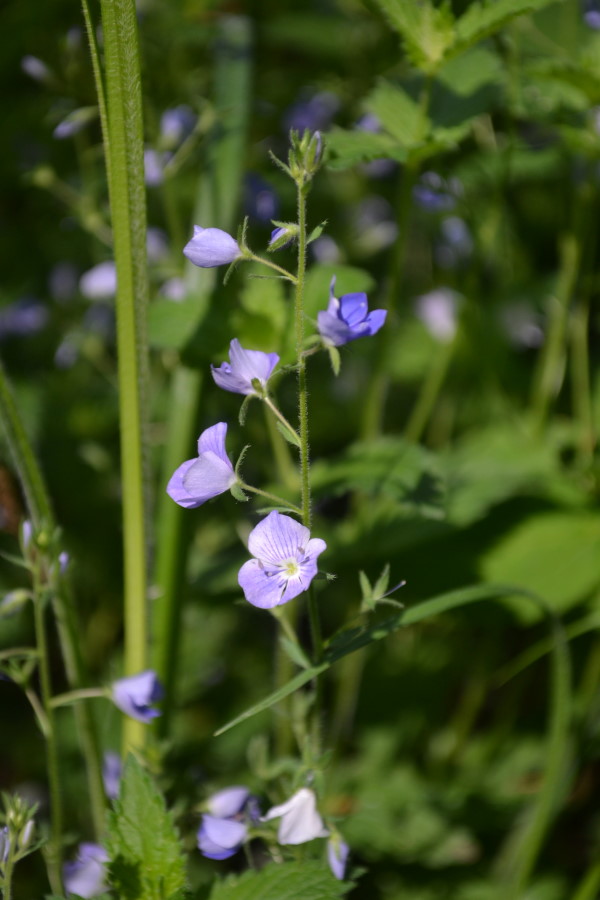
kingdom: Plantae
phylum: Tracheophyta
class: Magnoliopsida
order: Lamiales
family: Plantaginaceae
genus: Veronica
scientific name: Veronica chamaedrys
